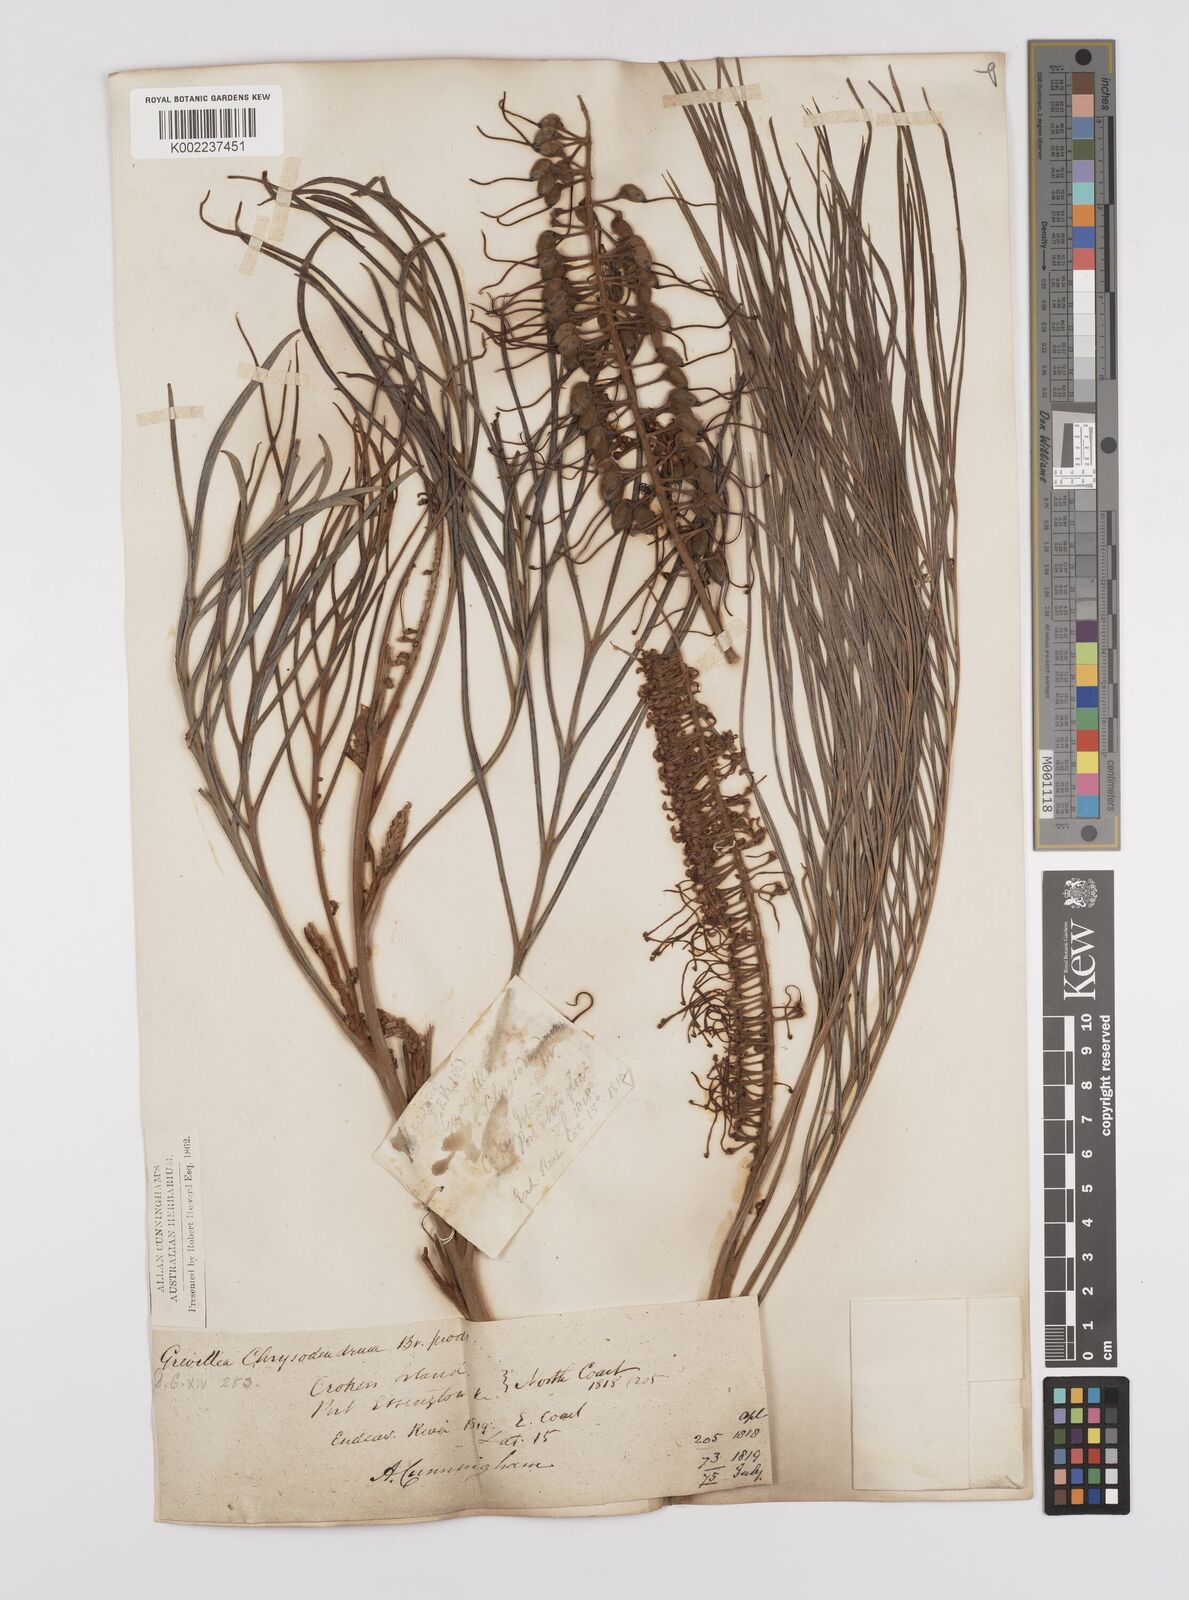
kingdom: Plantae
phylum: Tracheophyta
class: Magnoliopsida
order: Proteales
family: Proteaceae
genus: Grevillea
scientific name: Grevillea pteridifolia
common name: Golden grevillea
